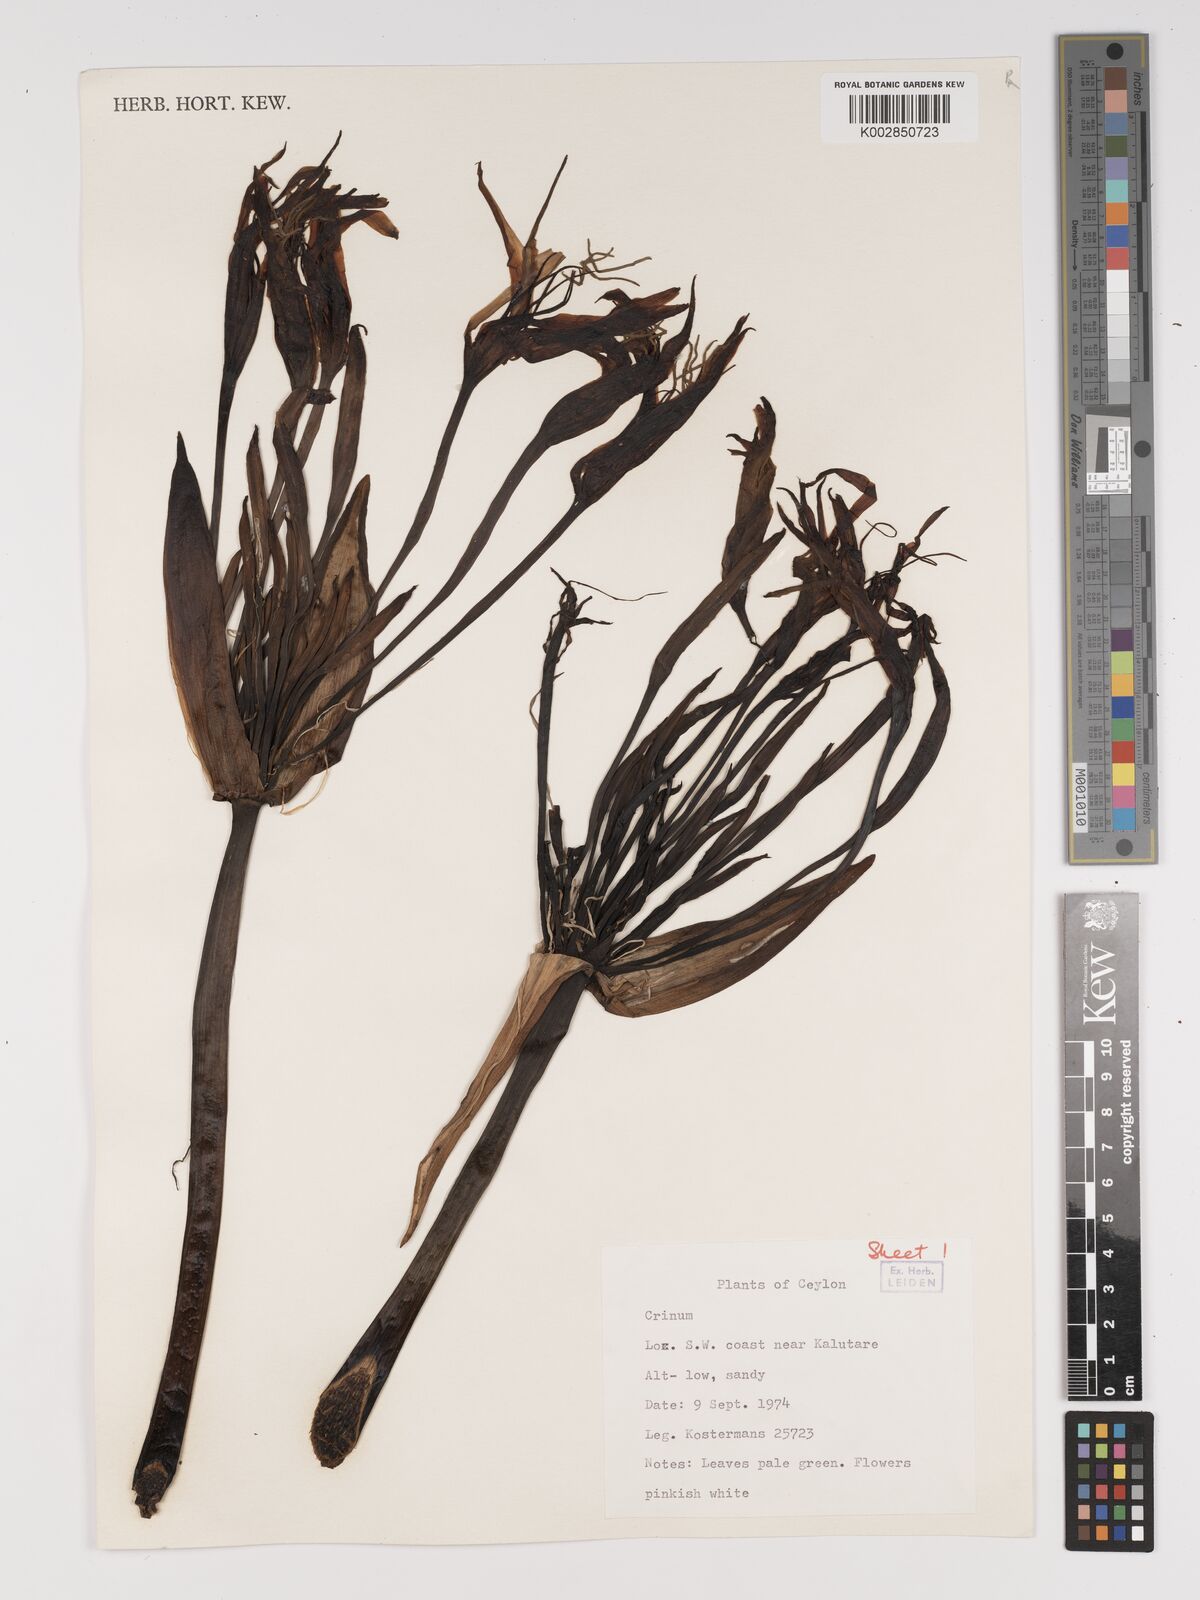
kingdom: Plantae
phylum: Tracheophyta
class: Liliopsida
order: Asparagales
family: Amaryllidaceae
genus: Crinum
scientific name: Crinum
